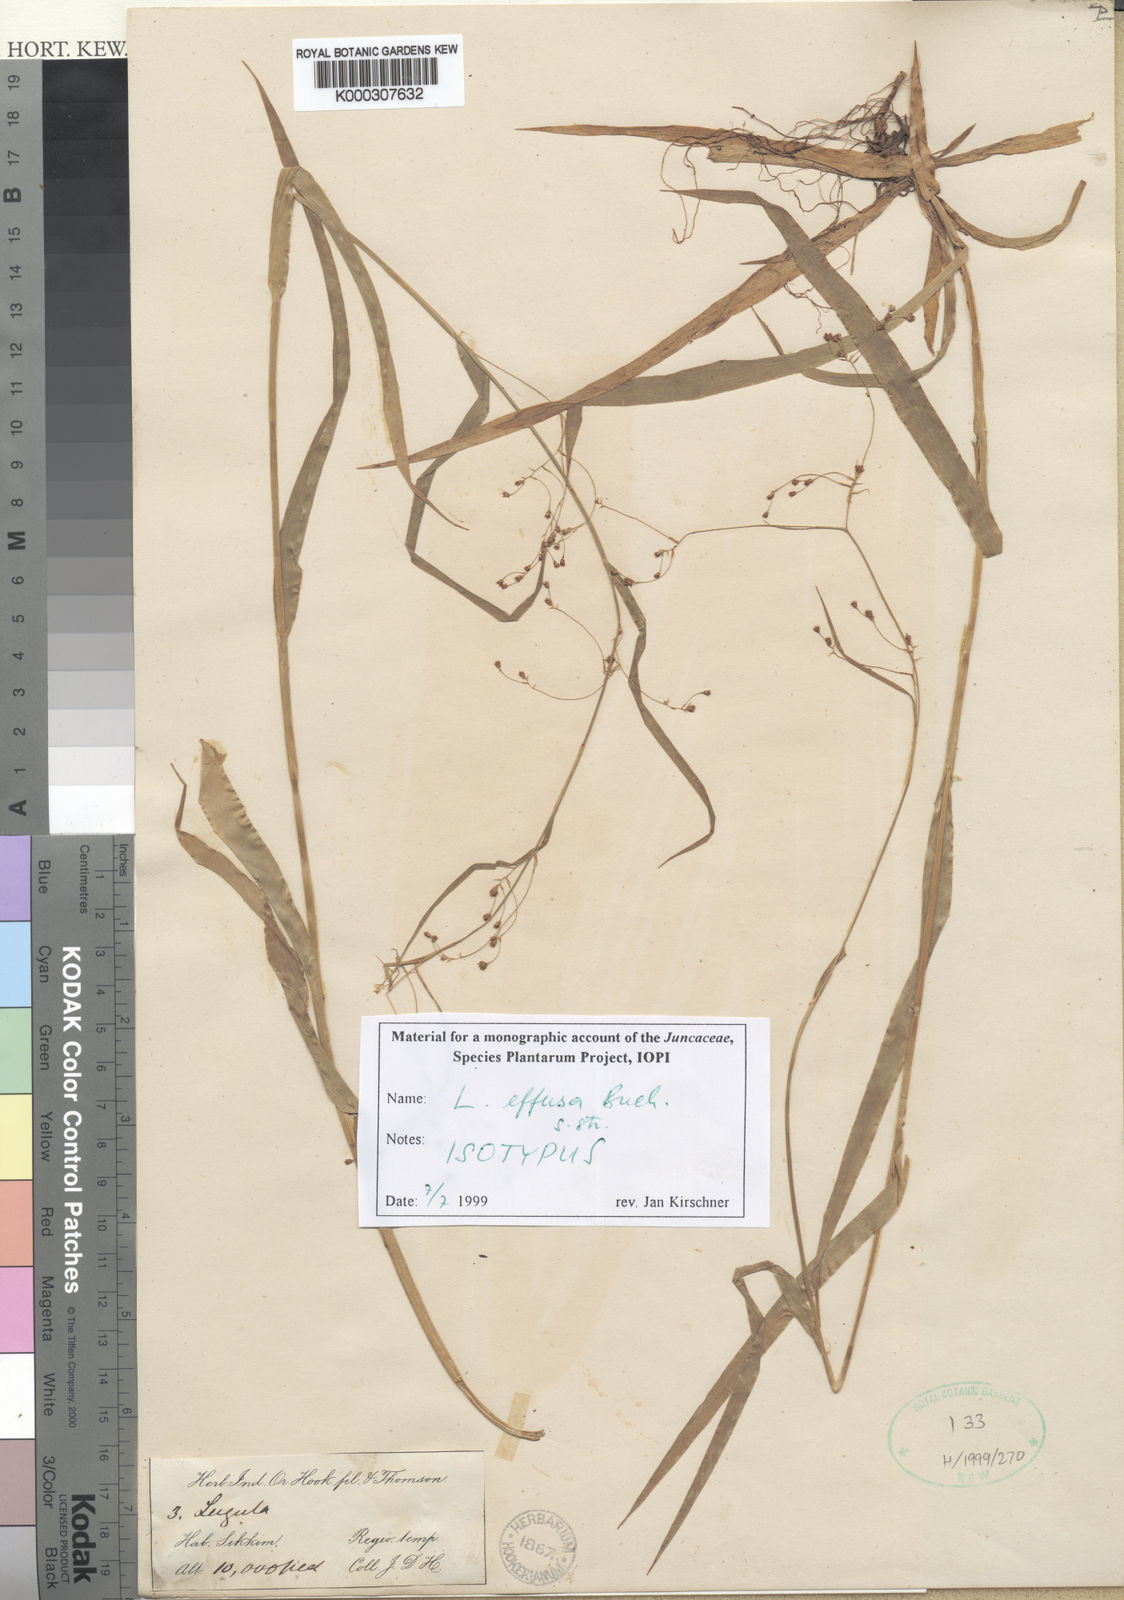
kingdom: Plantae
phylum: Tracheophyta
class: Liliopsida
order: Poales
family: Juncaceae
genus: Luzula
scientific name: Luzula effusa
